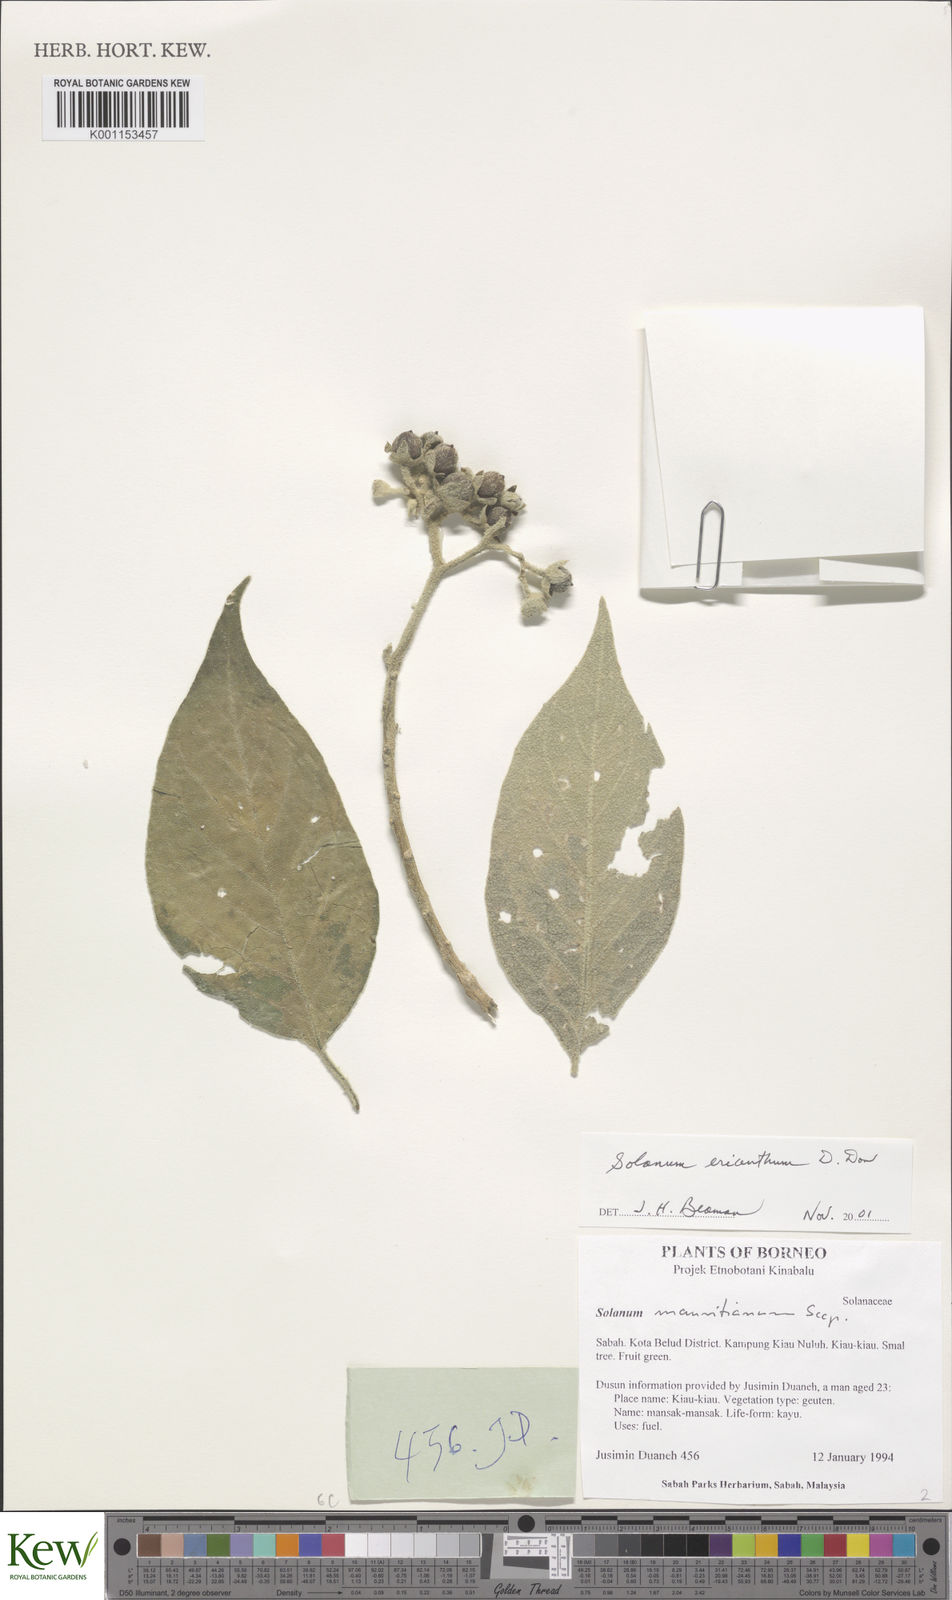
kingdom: Plantae
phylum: Tracheophyta
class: Magnoliopsida
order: Solanales
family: Solanaceae
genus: Solanum
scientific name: Solanum erianthum
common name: Tobacco-tree
